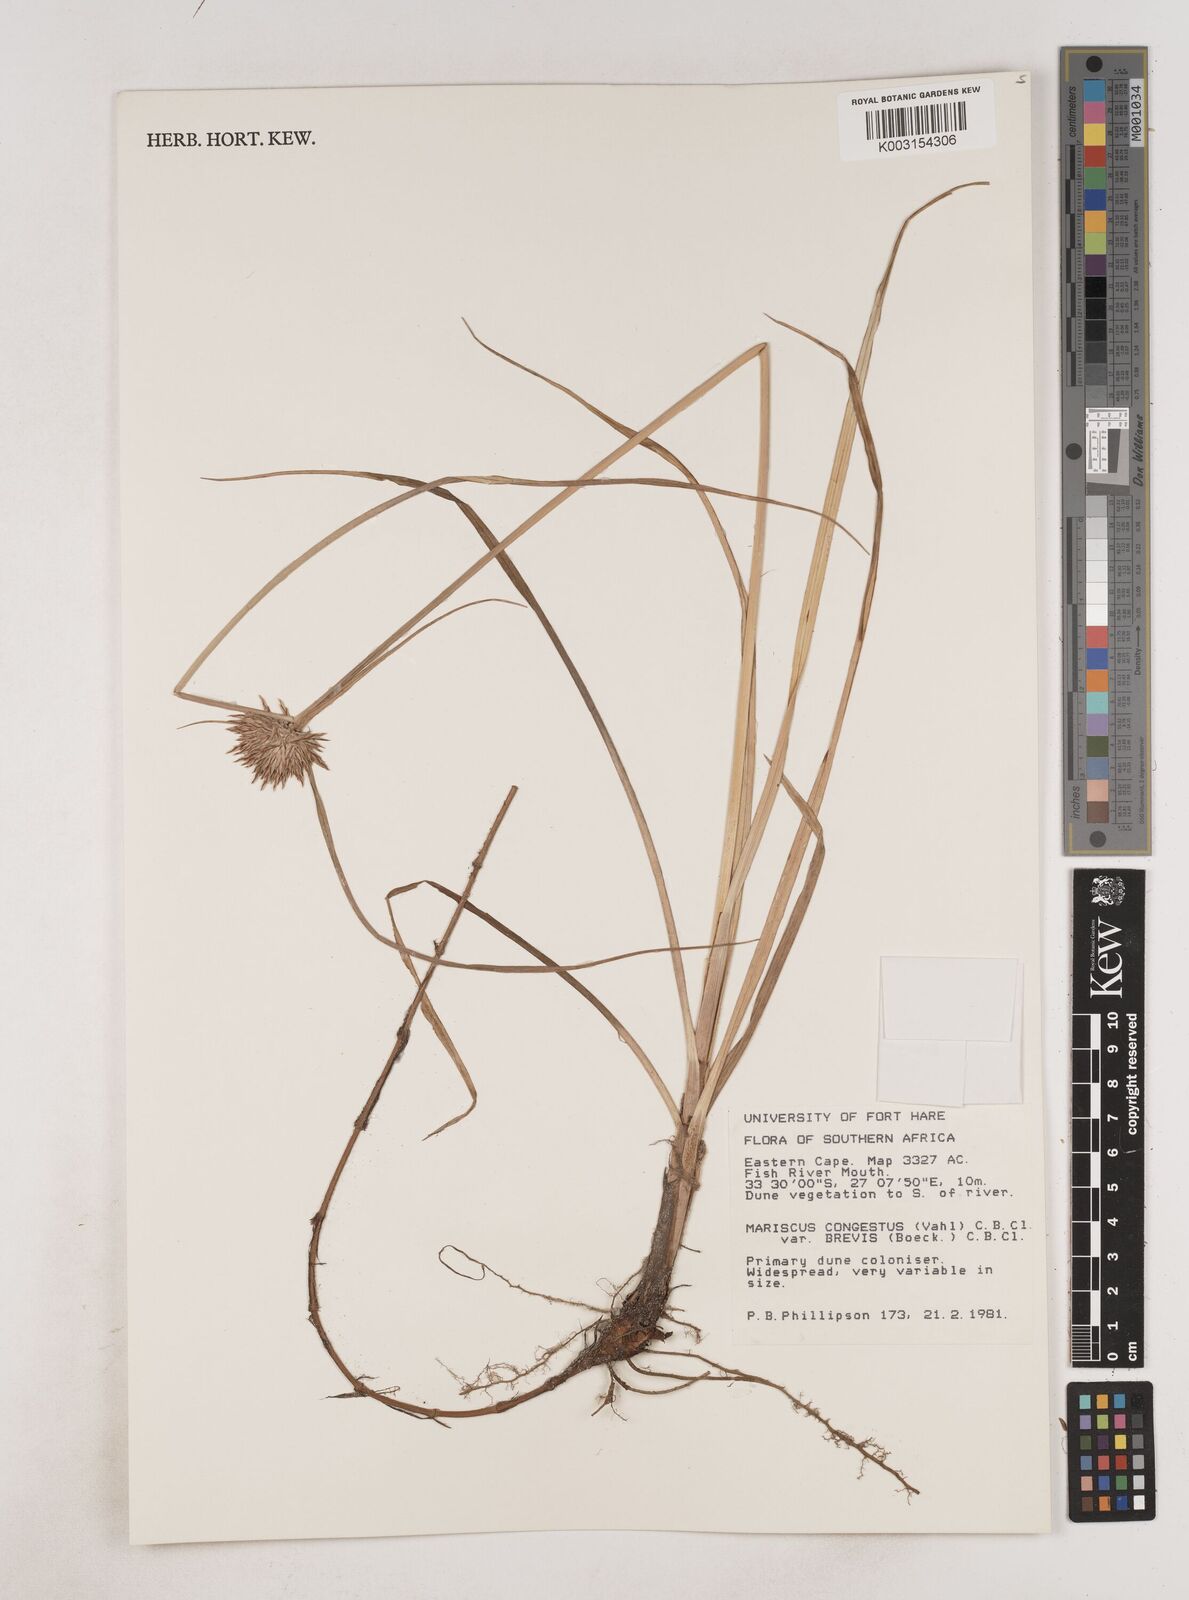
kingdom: Plantae
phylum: Tracheophyta
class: Liliopsida
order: Poales
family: Cyperaceae
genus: Cyperus
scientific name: Cyperus congestus
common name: Dense flat sedge
